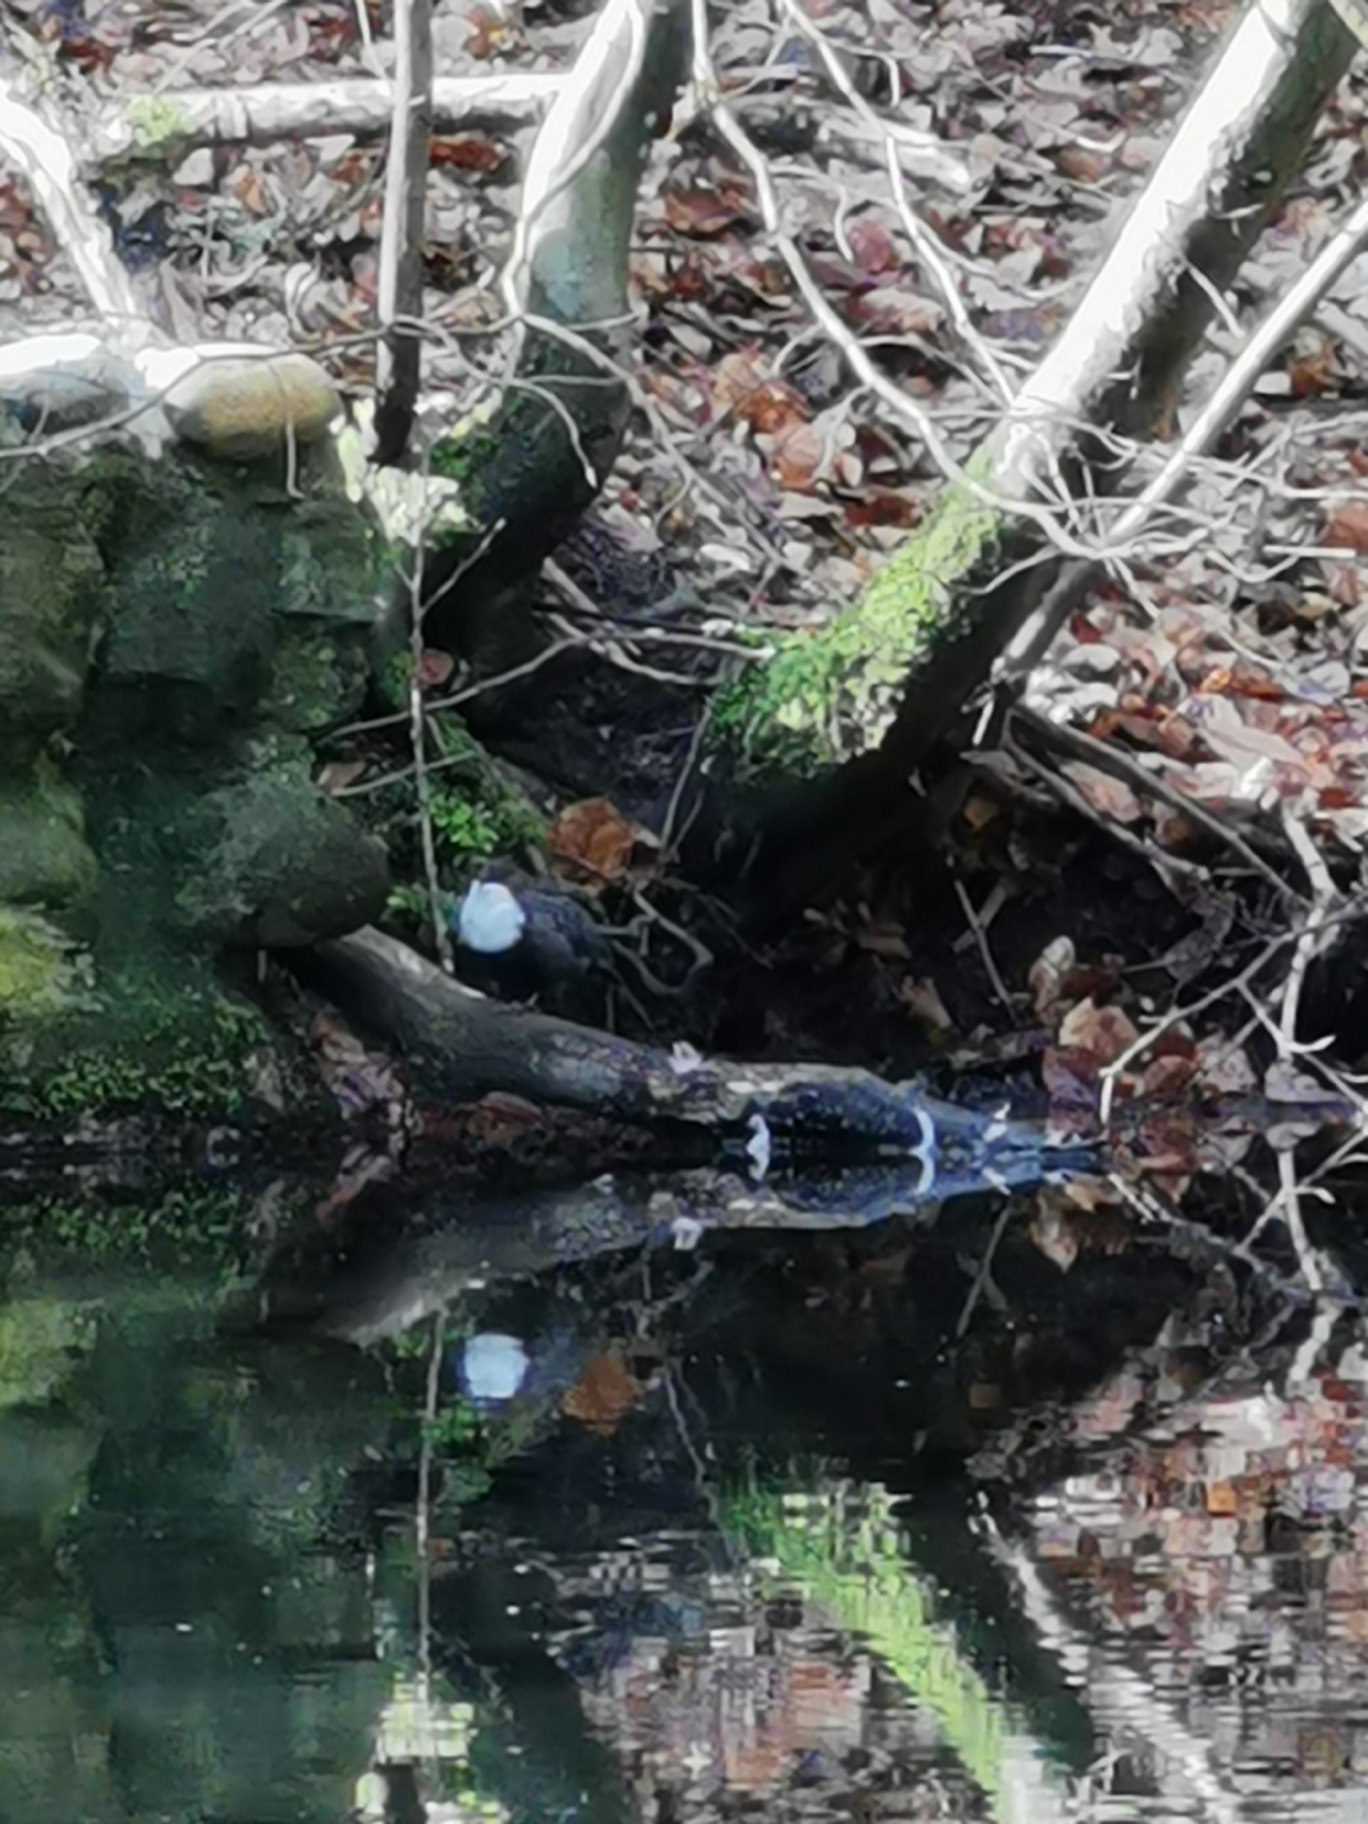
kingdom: Animalia
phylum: Chordata
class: Aves
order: Passeriformes
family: Cinclidae
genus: Cinclus
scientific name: Cinclus cinclus
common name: Vandstær
